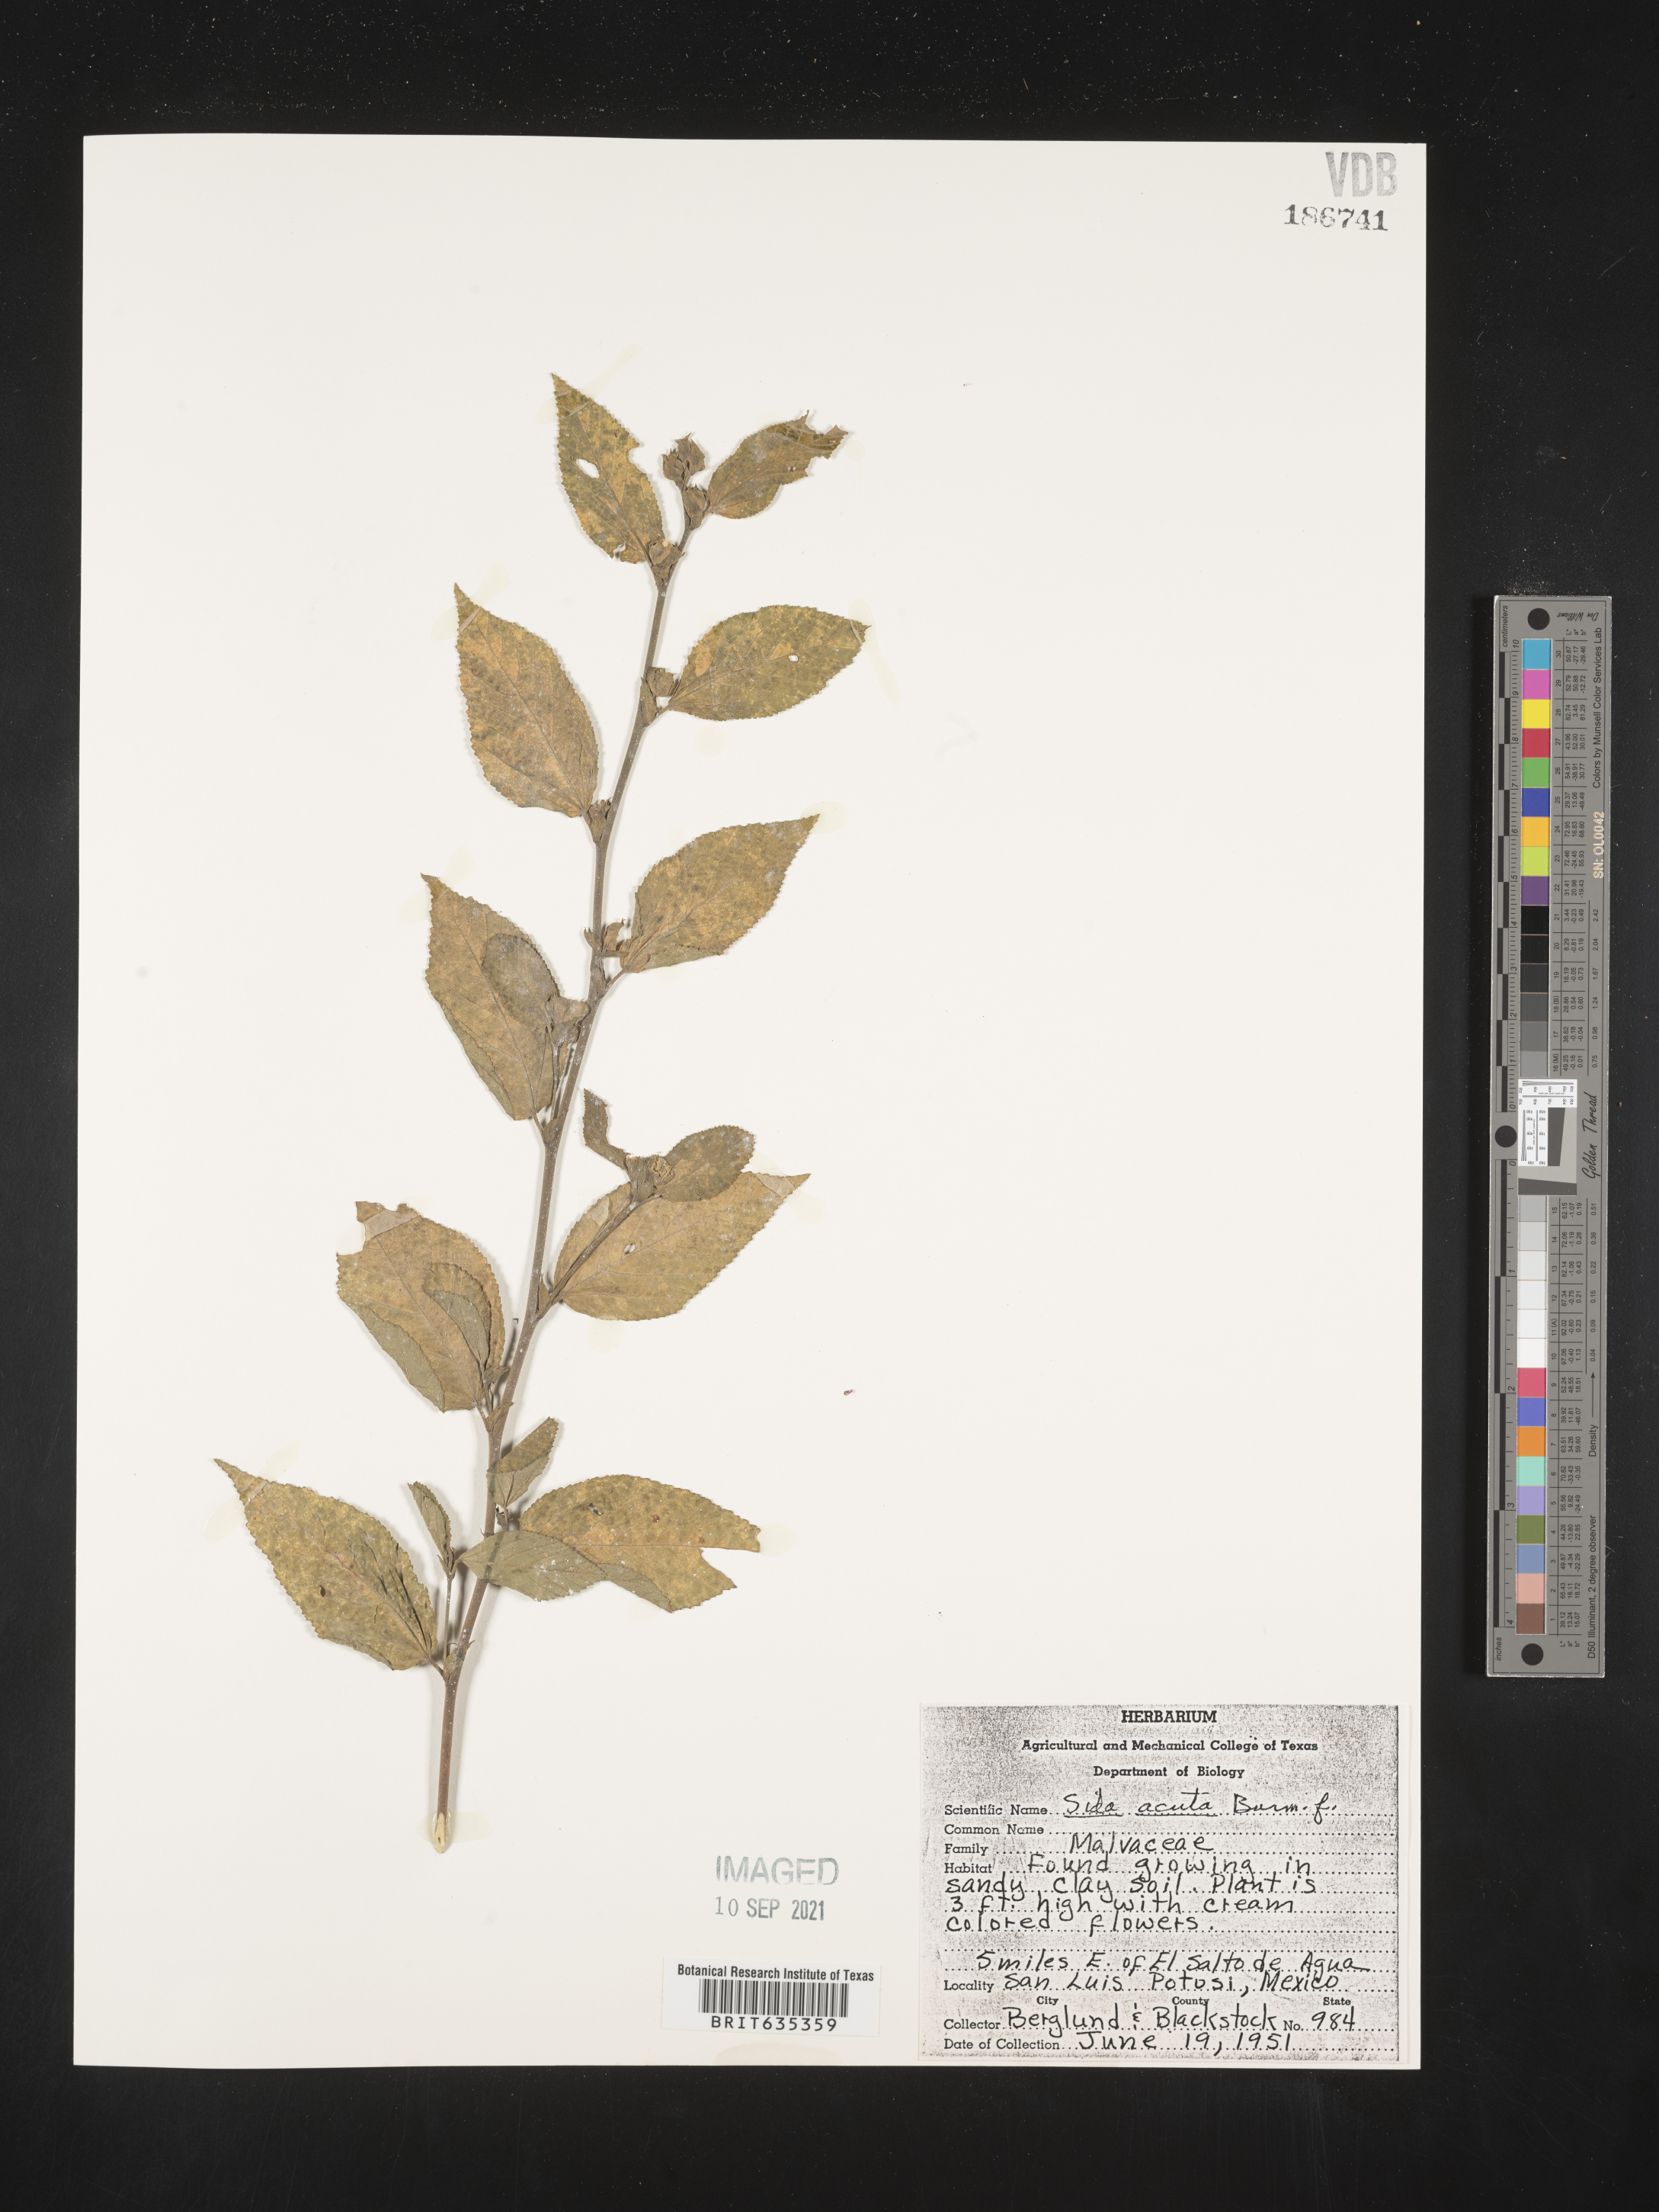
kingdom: Plantae
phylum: Tracheophyta
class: Magnoliopsida
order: Malvales
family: Malvaceae
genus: Sida
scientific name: Sida
